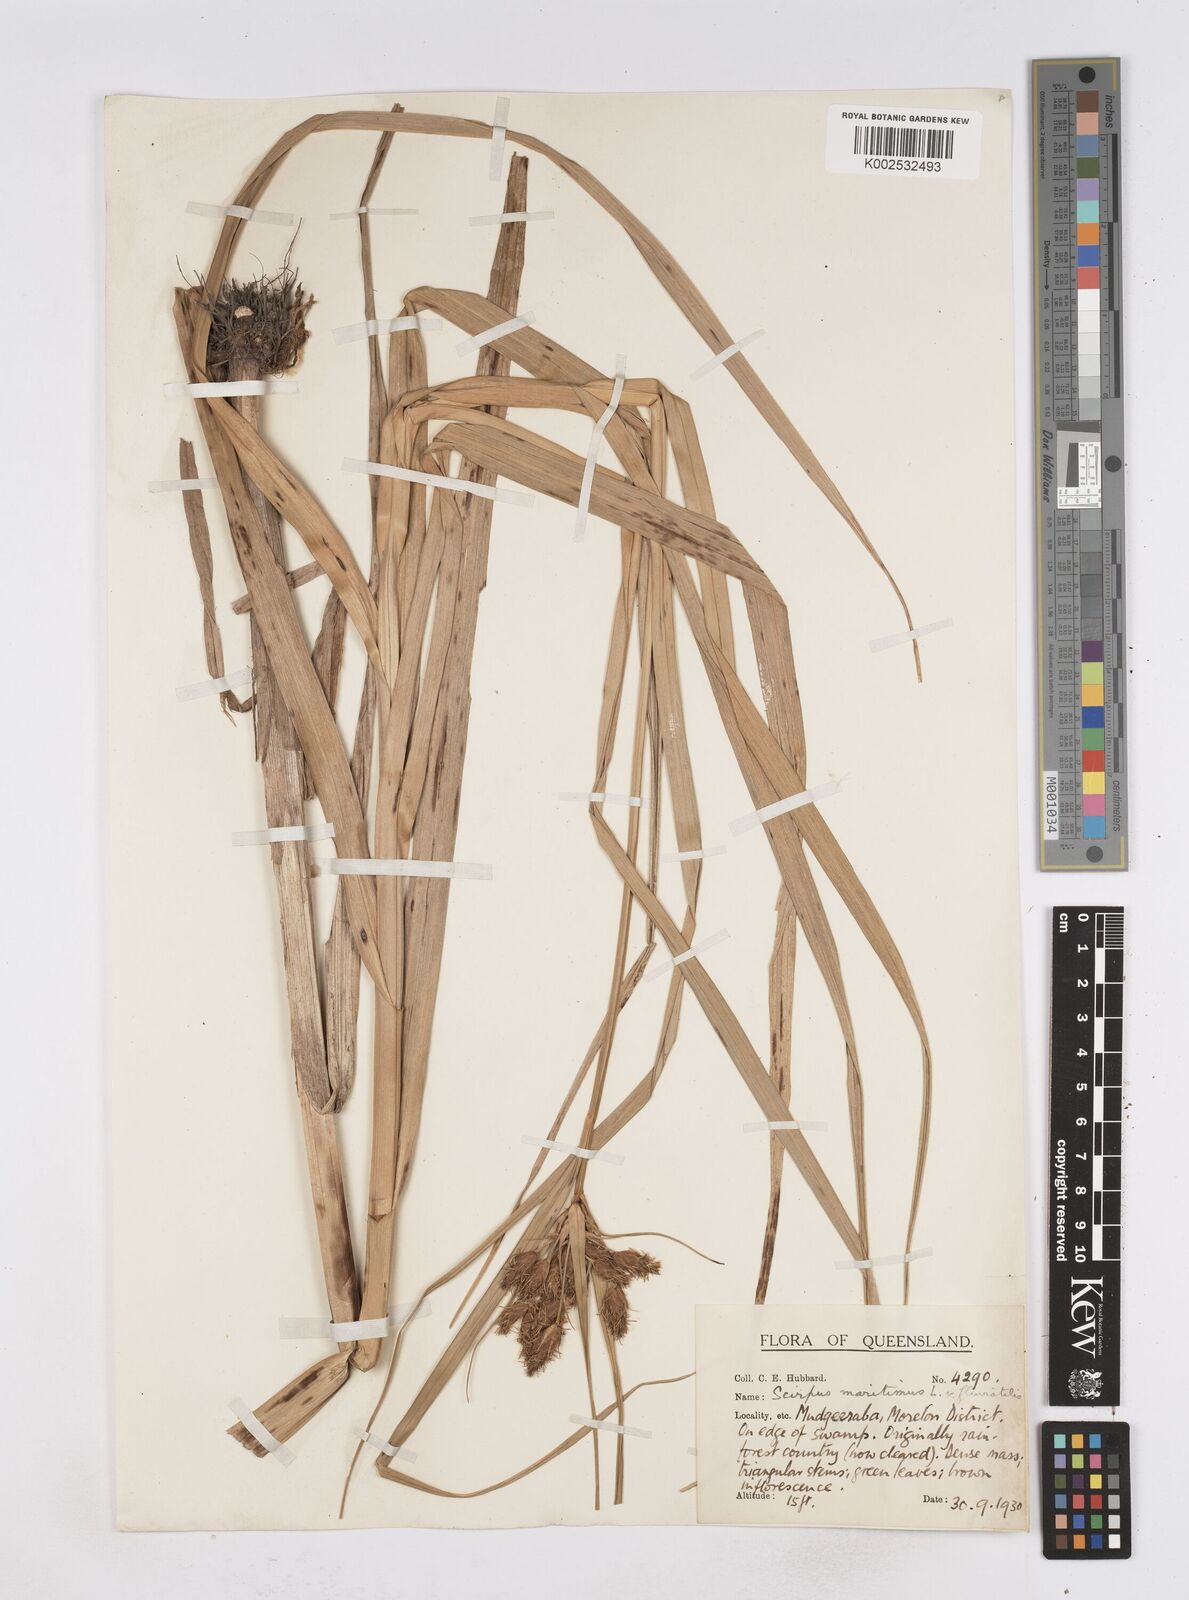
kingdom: Plantae
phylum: Tracheophyta
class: Liliopsida
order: Poales
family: Cyperaceae
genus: Bolboschoenus
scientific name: Bolboschoenus maritimus
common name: Sea club-rush
